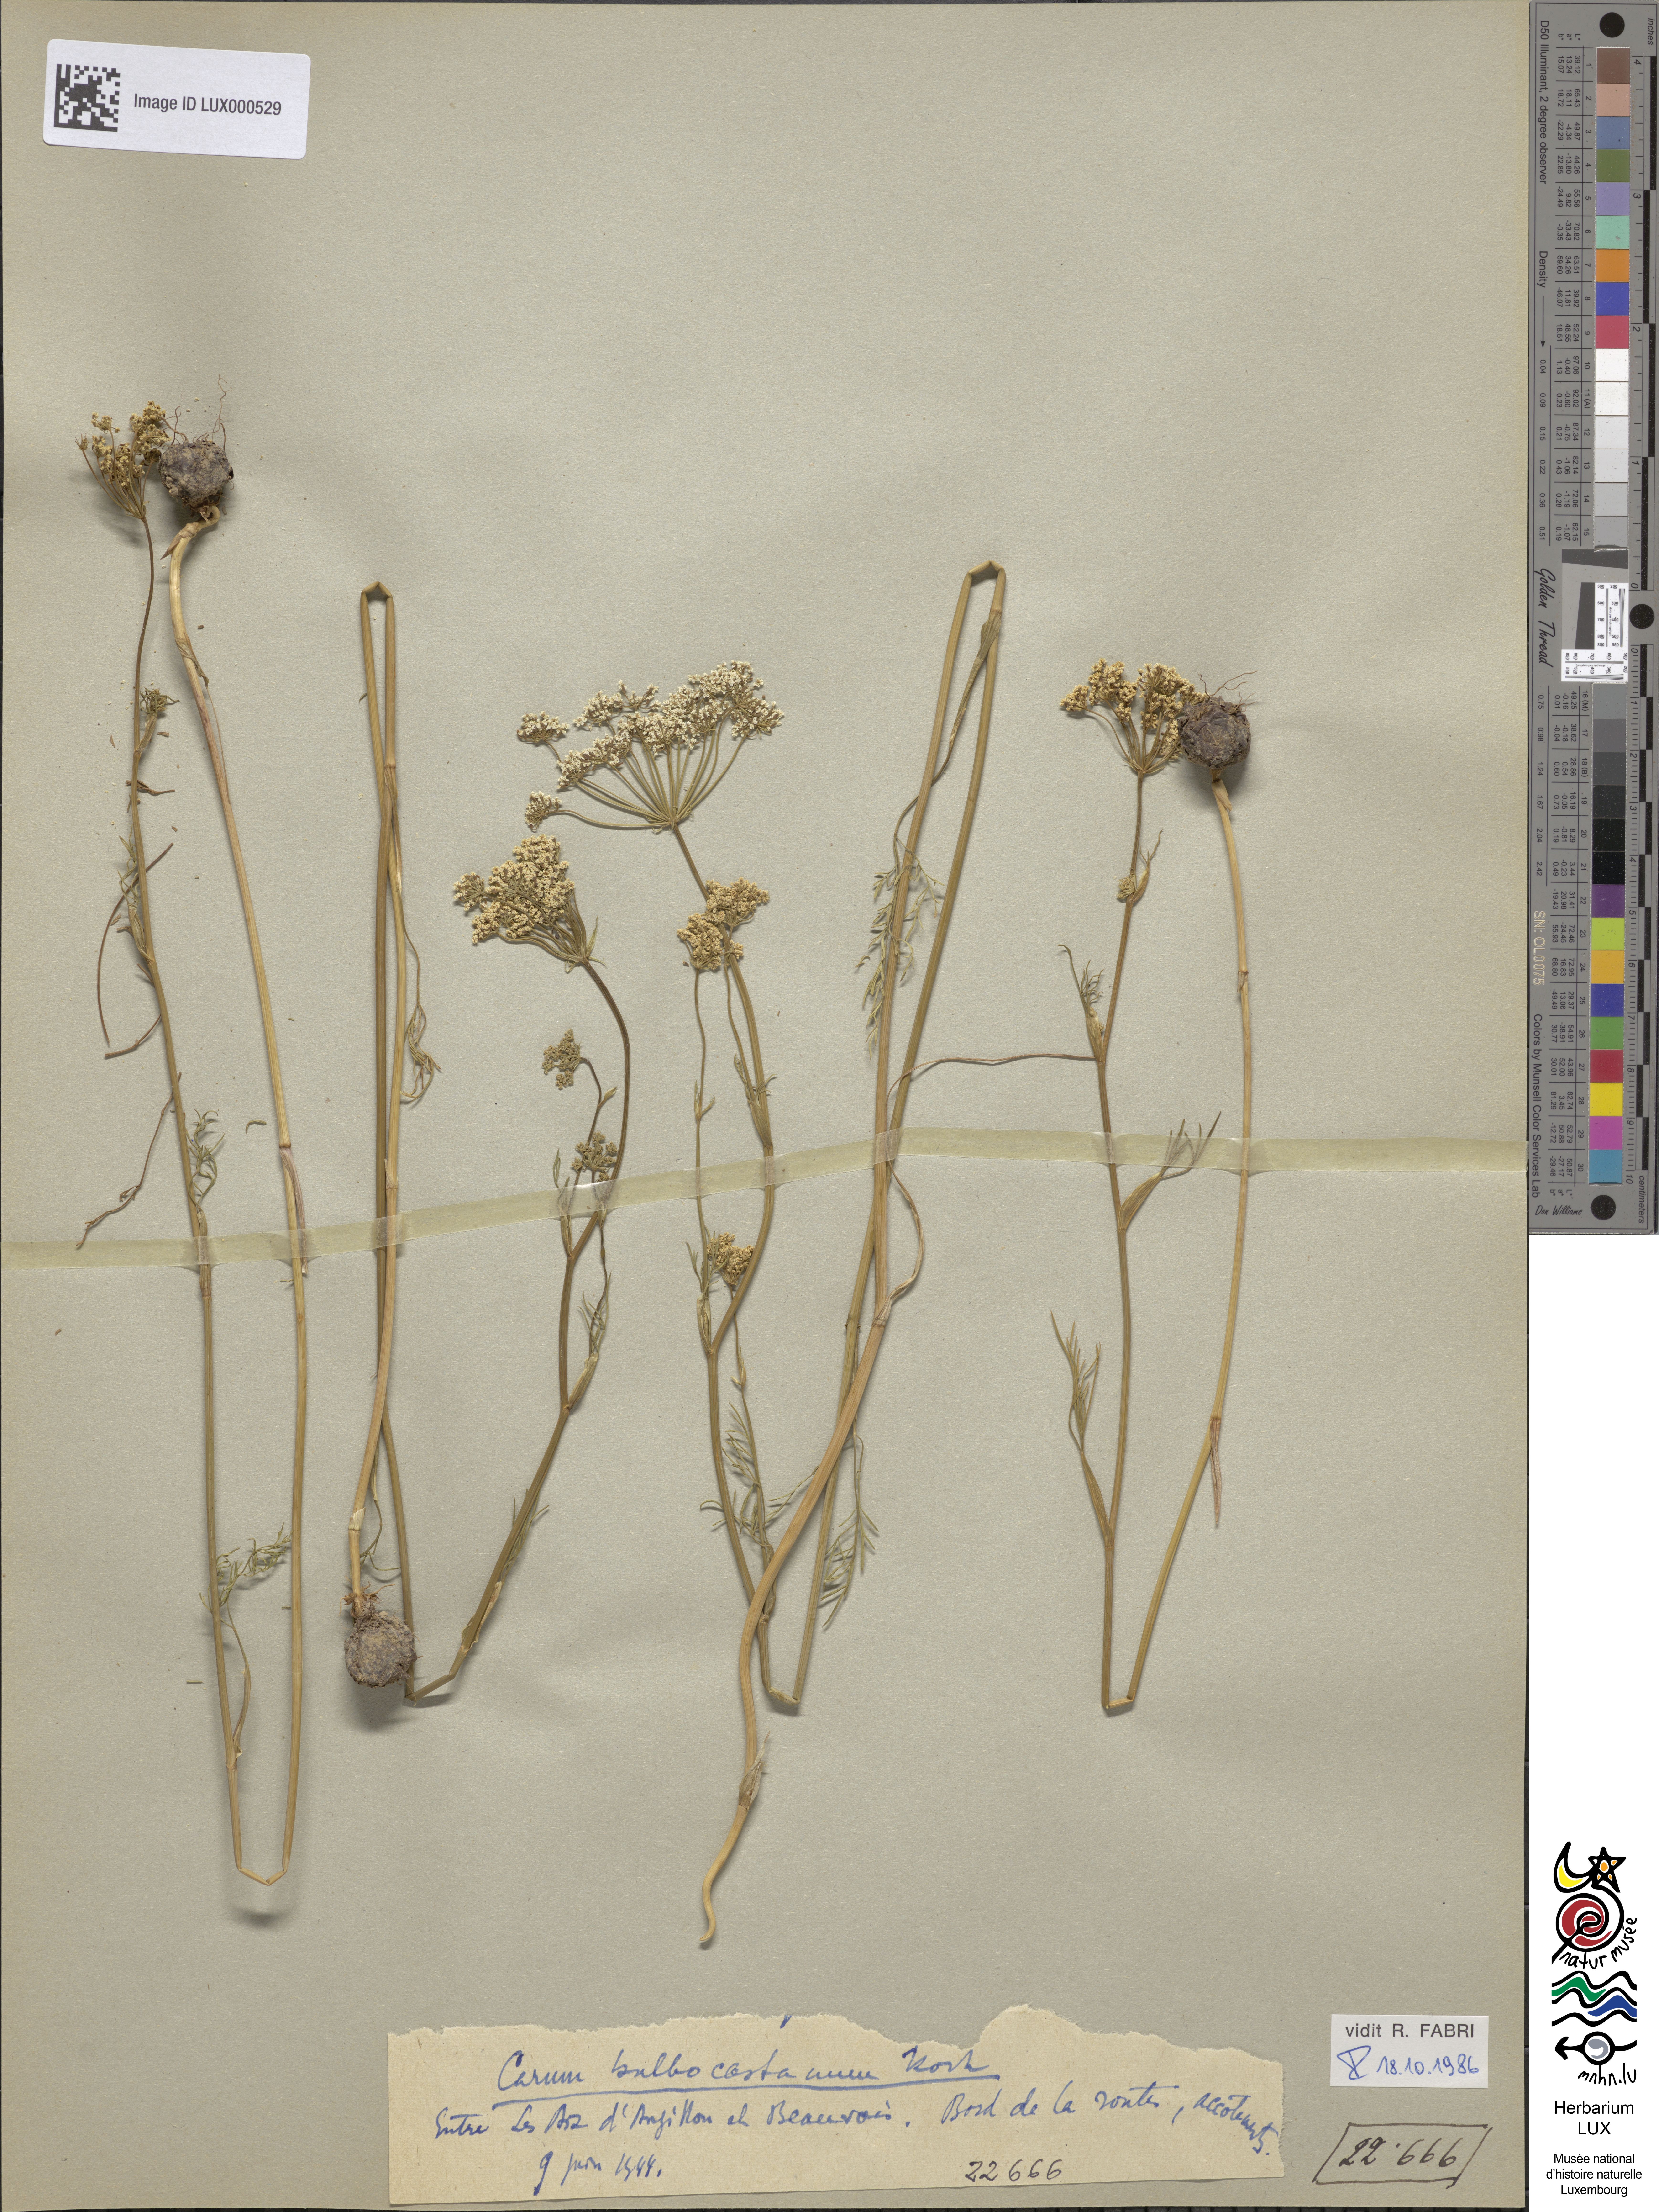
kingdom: Plantae
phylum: Tracheophyta
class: Magnoliopsida
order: Apiales
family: Apiaceae
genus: Bunium
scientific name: Bunium bulbocastanum
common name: Great pignut
